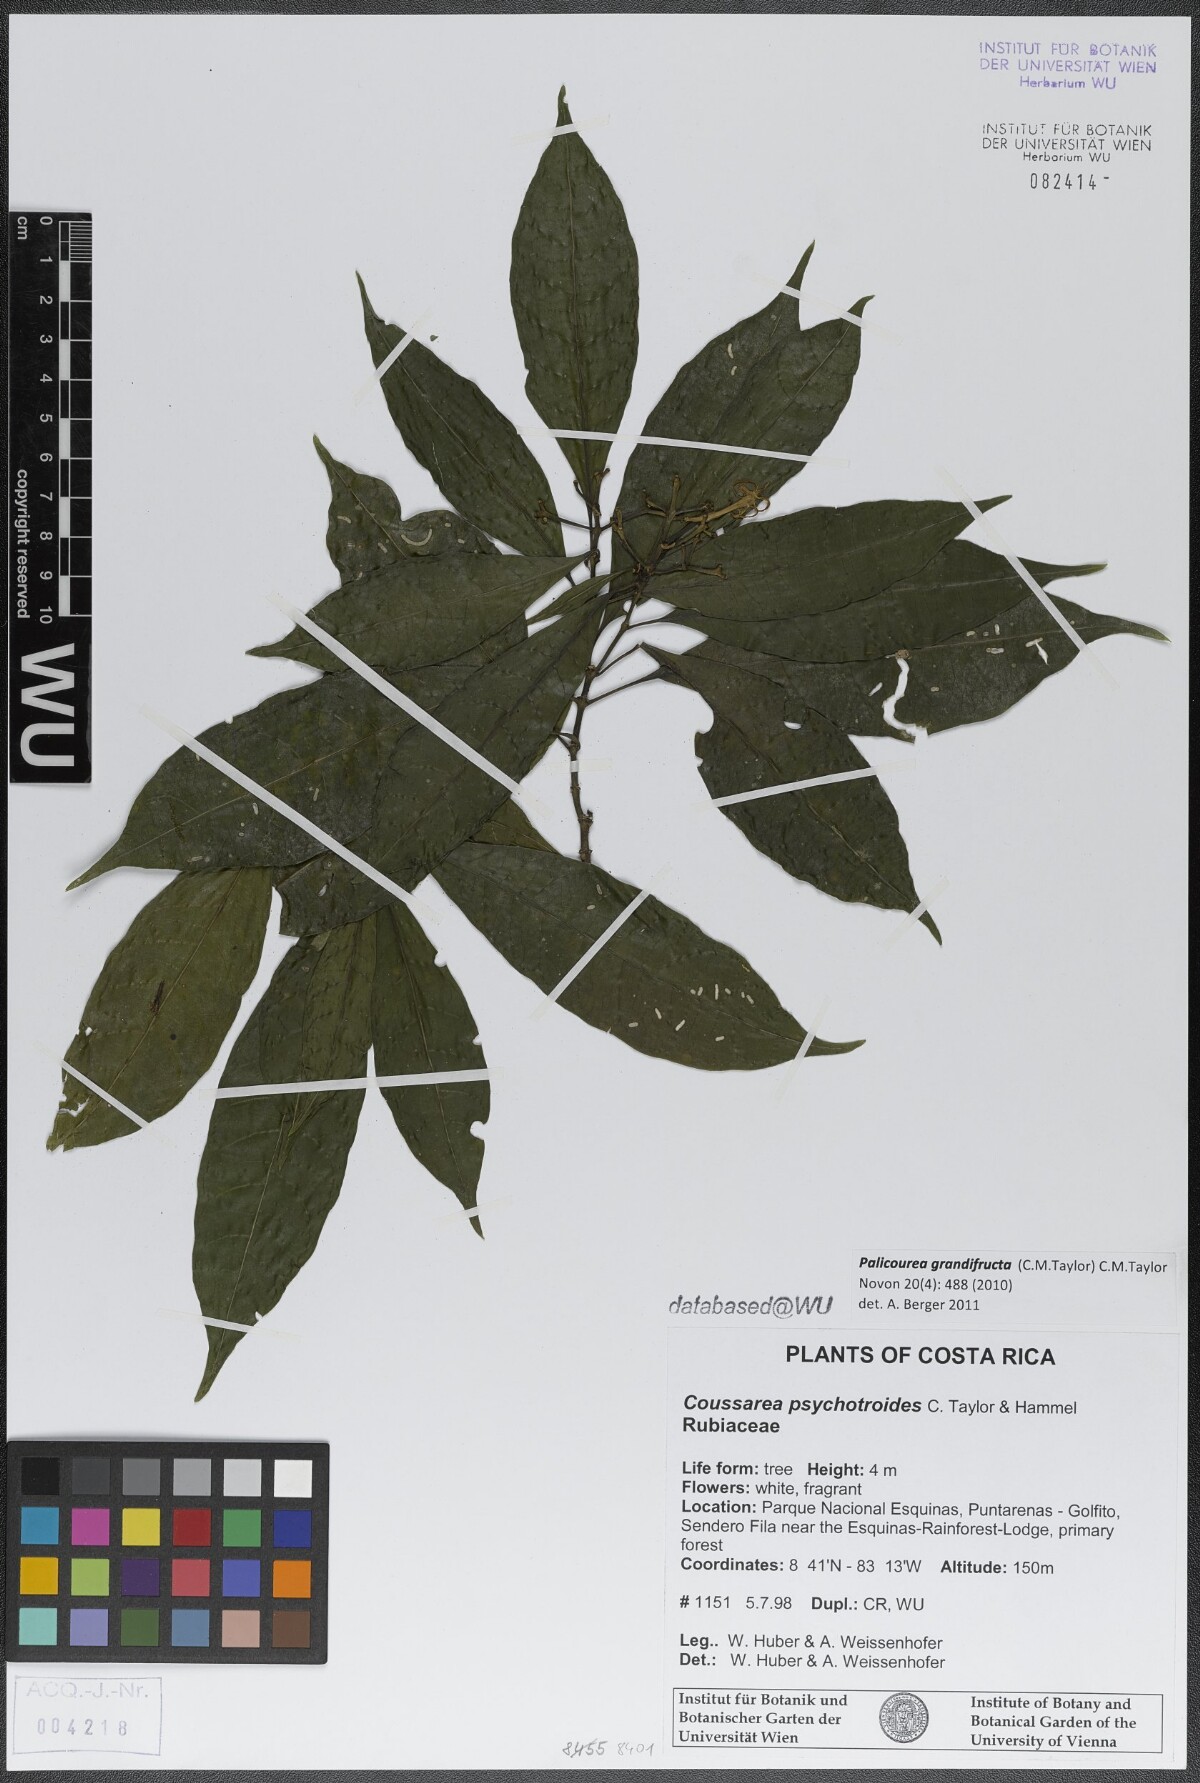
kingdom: Plantae
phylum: Tracheophyta
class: Magnoliopsida
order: Gentianales
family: Rubiaceae
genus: Palicourea
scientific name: Palicourea grandifructa
